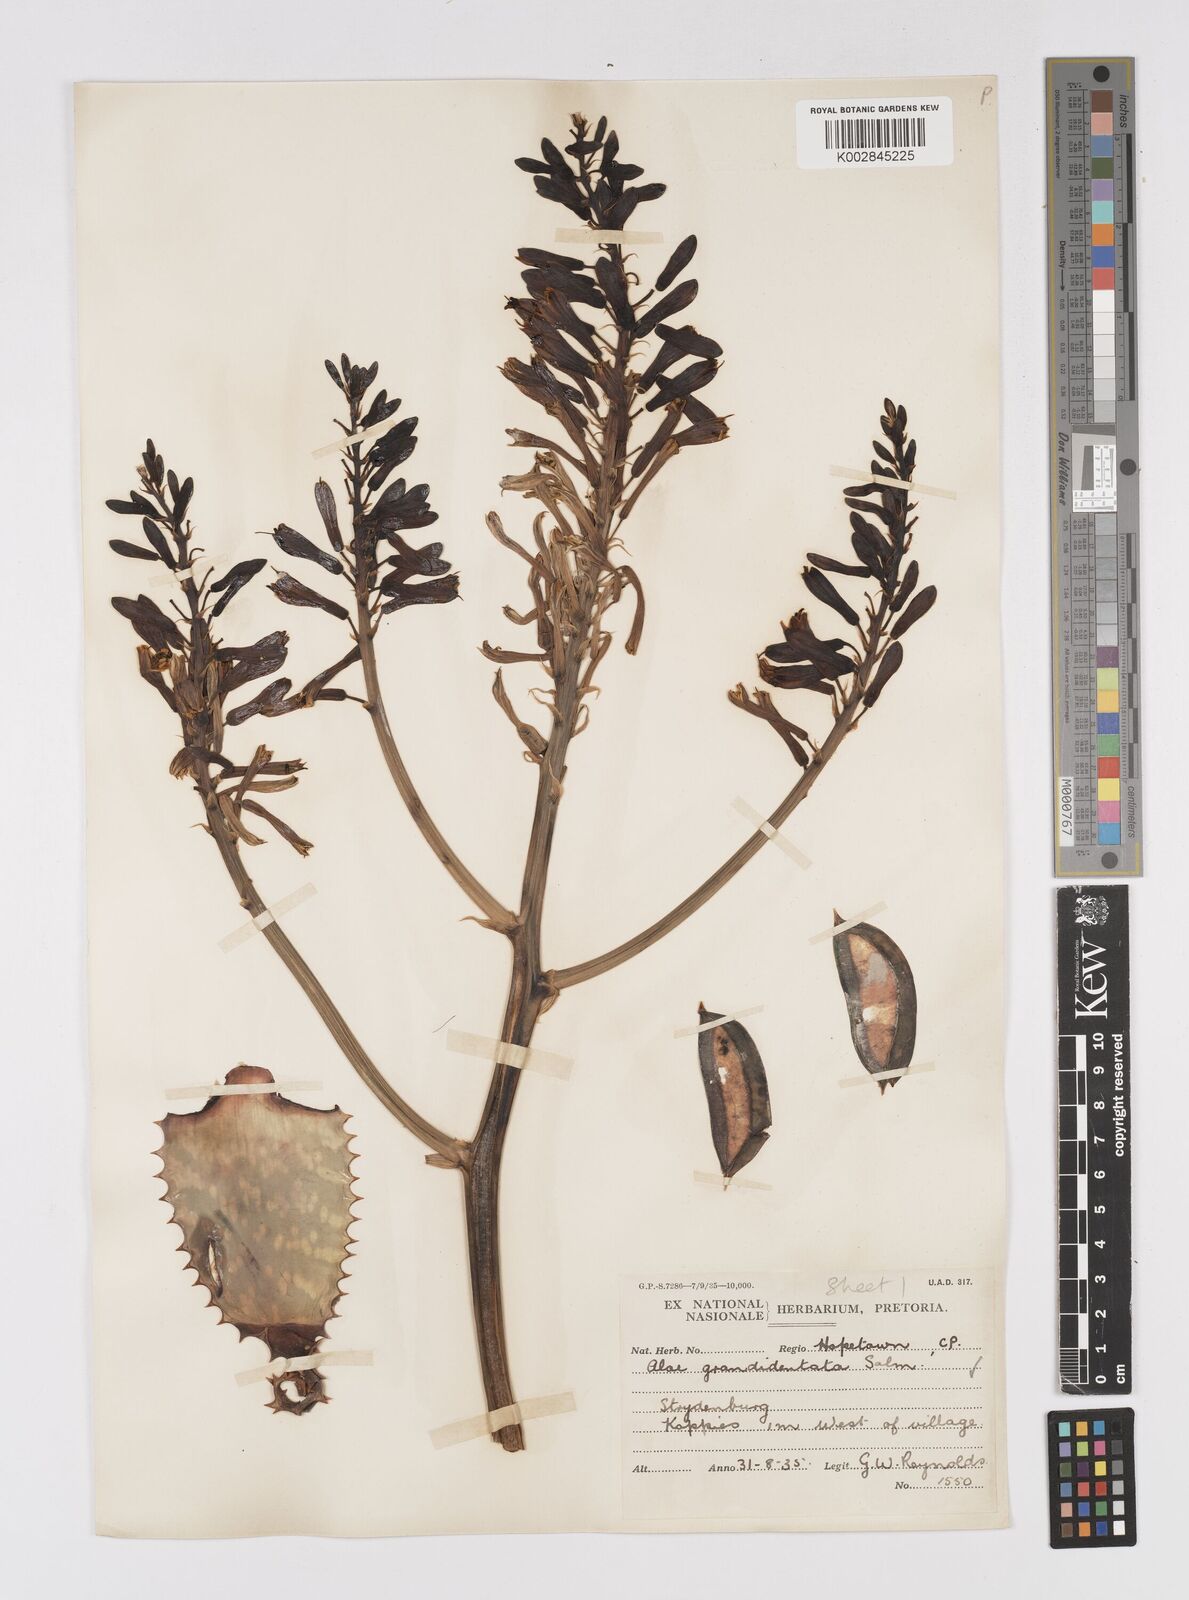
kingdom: Plantae
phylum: Tracheophyta
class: Liliopsida
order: Asparagales
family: Asphodelaceae
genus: Aloe
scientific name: Aloe grandidentata
